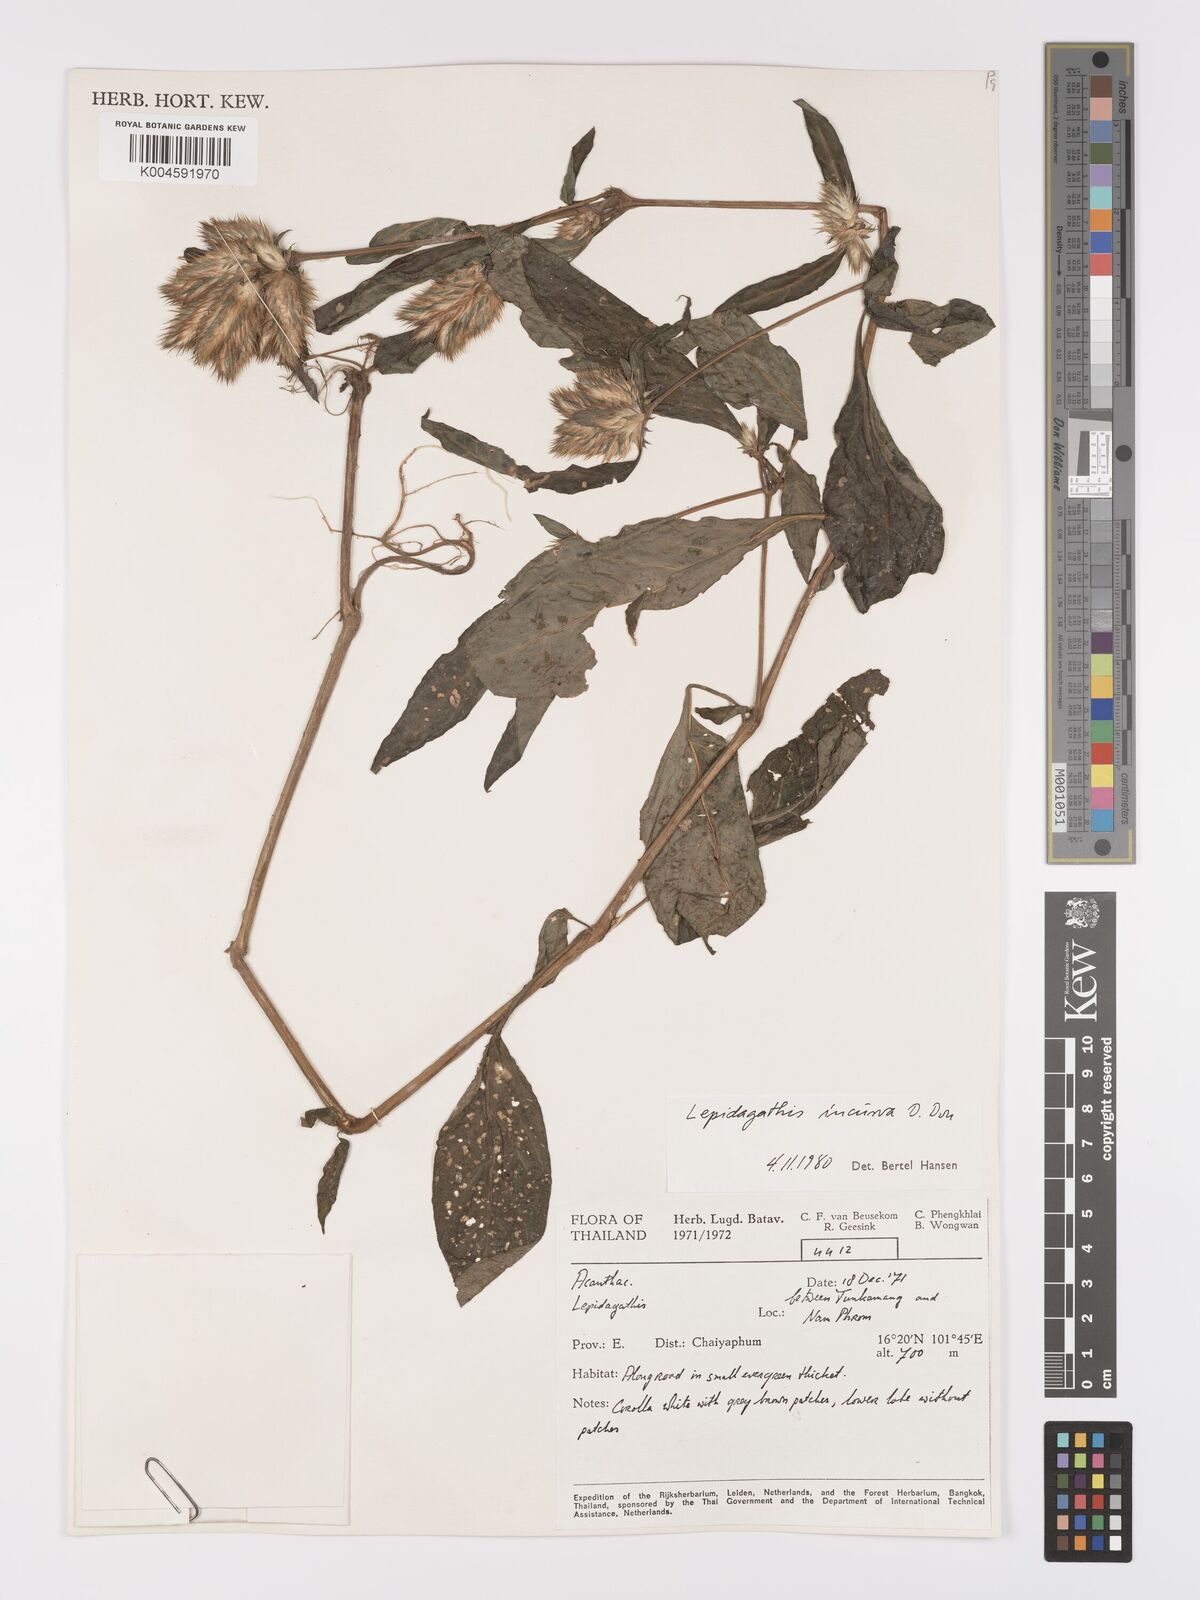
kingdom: Plantae
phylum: Tracheophyta
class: Magnoliopsida
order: Lamiales
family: Acanthaceae
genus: Lepidagathis
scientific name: Lepidagathis incurva
